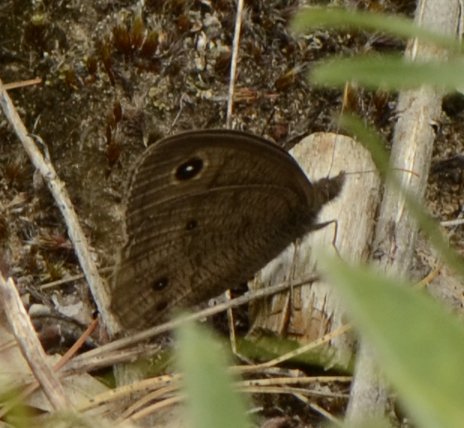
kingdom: Animalia
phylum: Arthropoda
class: Insecta
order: Lepidoptera
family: Nymphalidae
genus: Cercyonis
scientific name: Cercyonis pegala
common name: Common Wood-Nymph
